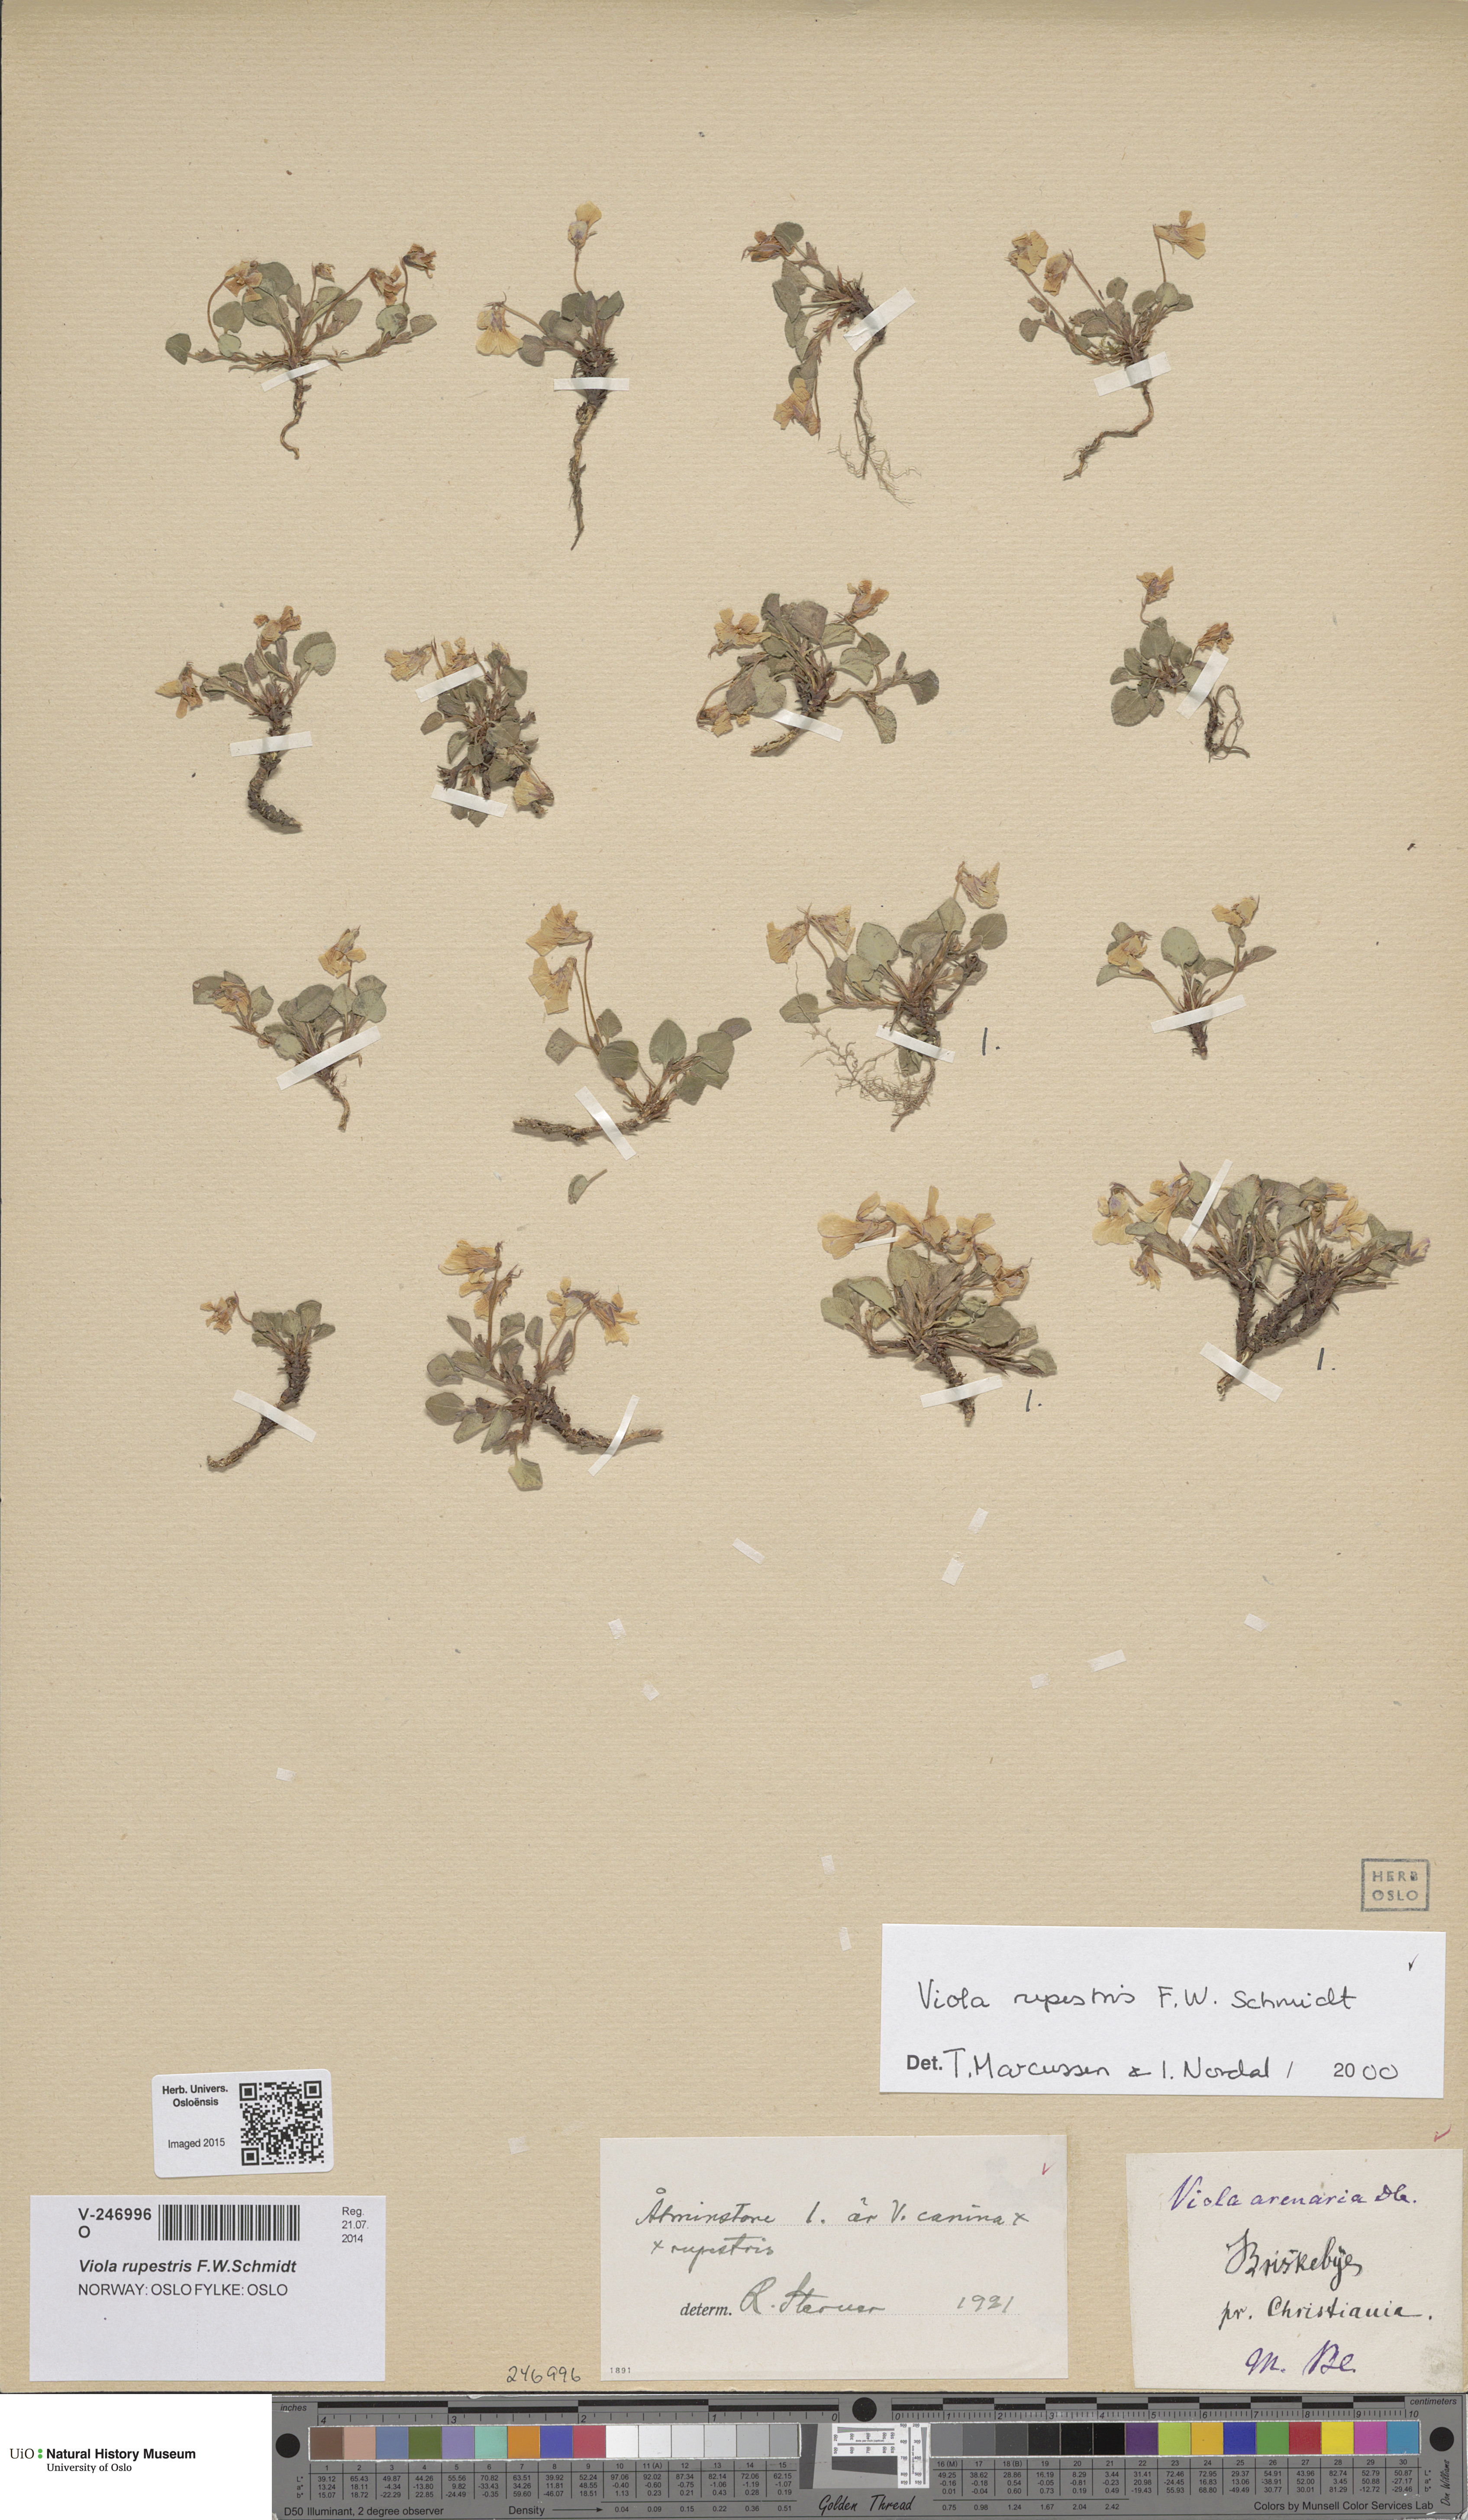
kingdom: Plantae
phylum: Tracheophyta
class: Magnoliopsida
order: Malpighiales
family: Violaceae
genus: Viola
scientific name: Viola rupestris
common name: Teesdale violet
